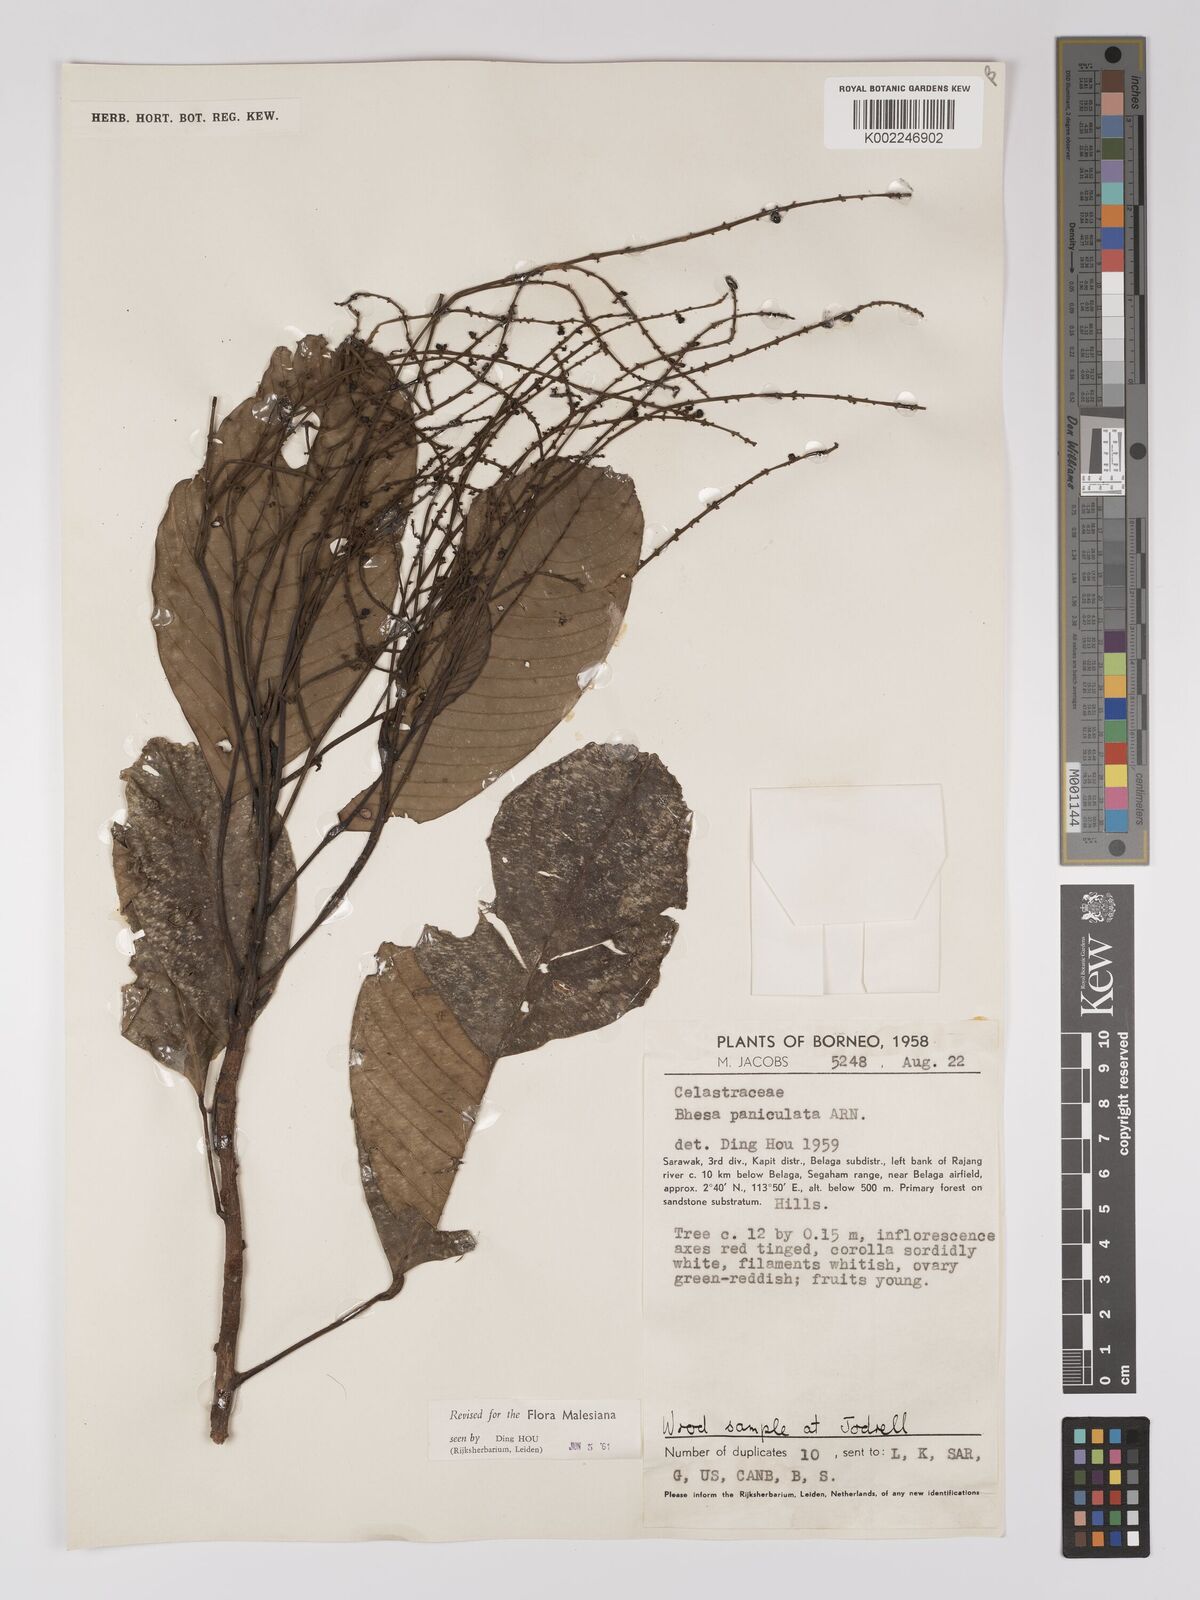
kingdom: Plantae
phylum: Tracheophyta
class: Magnoliopsida
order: Malpighiales
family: Centroplacaceae
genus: Bhesa
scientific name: Bhesa paniculata
